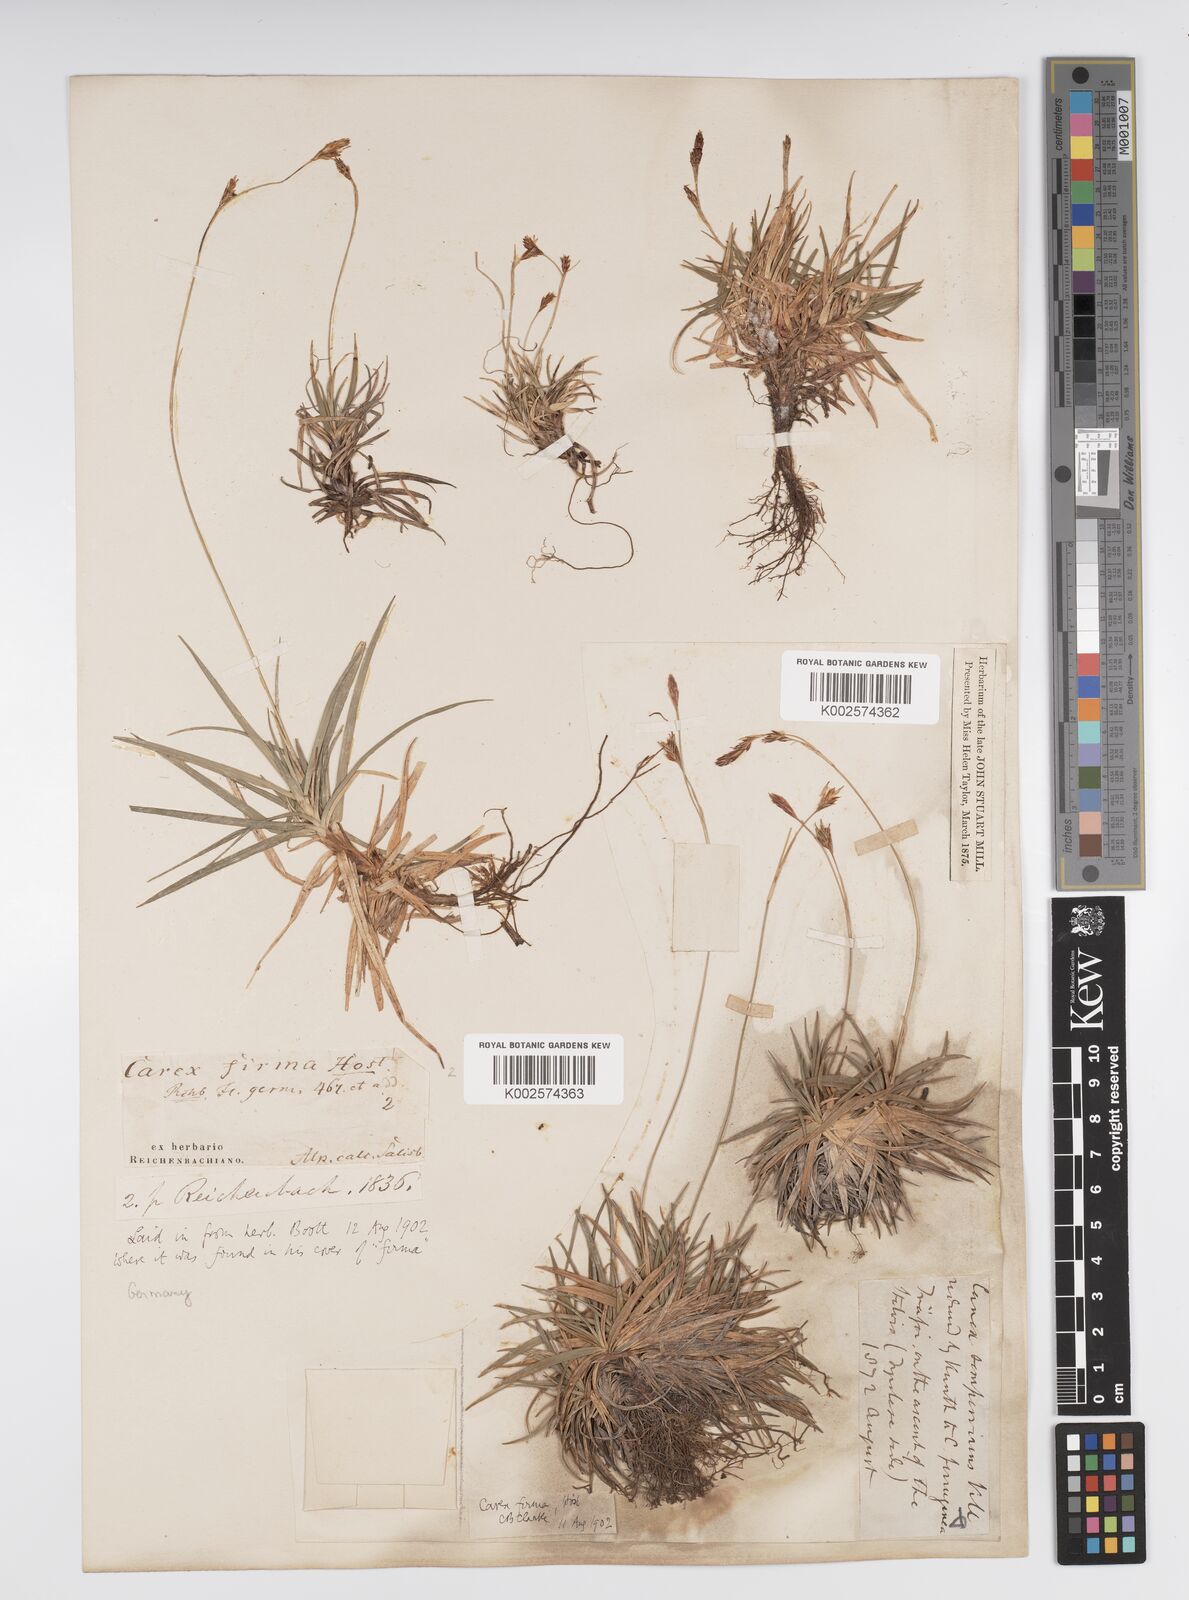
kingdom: Plantae
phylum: Tracheophyta
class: Liliopsida
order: Poales
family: Cyperaceae
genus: Carex
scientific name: Carex firma
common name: Dwarf pillow sedge
